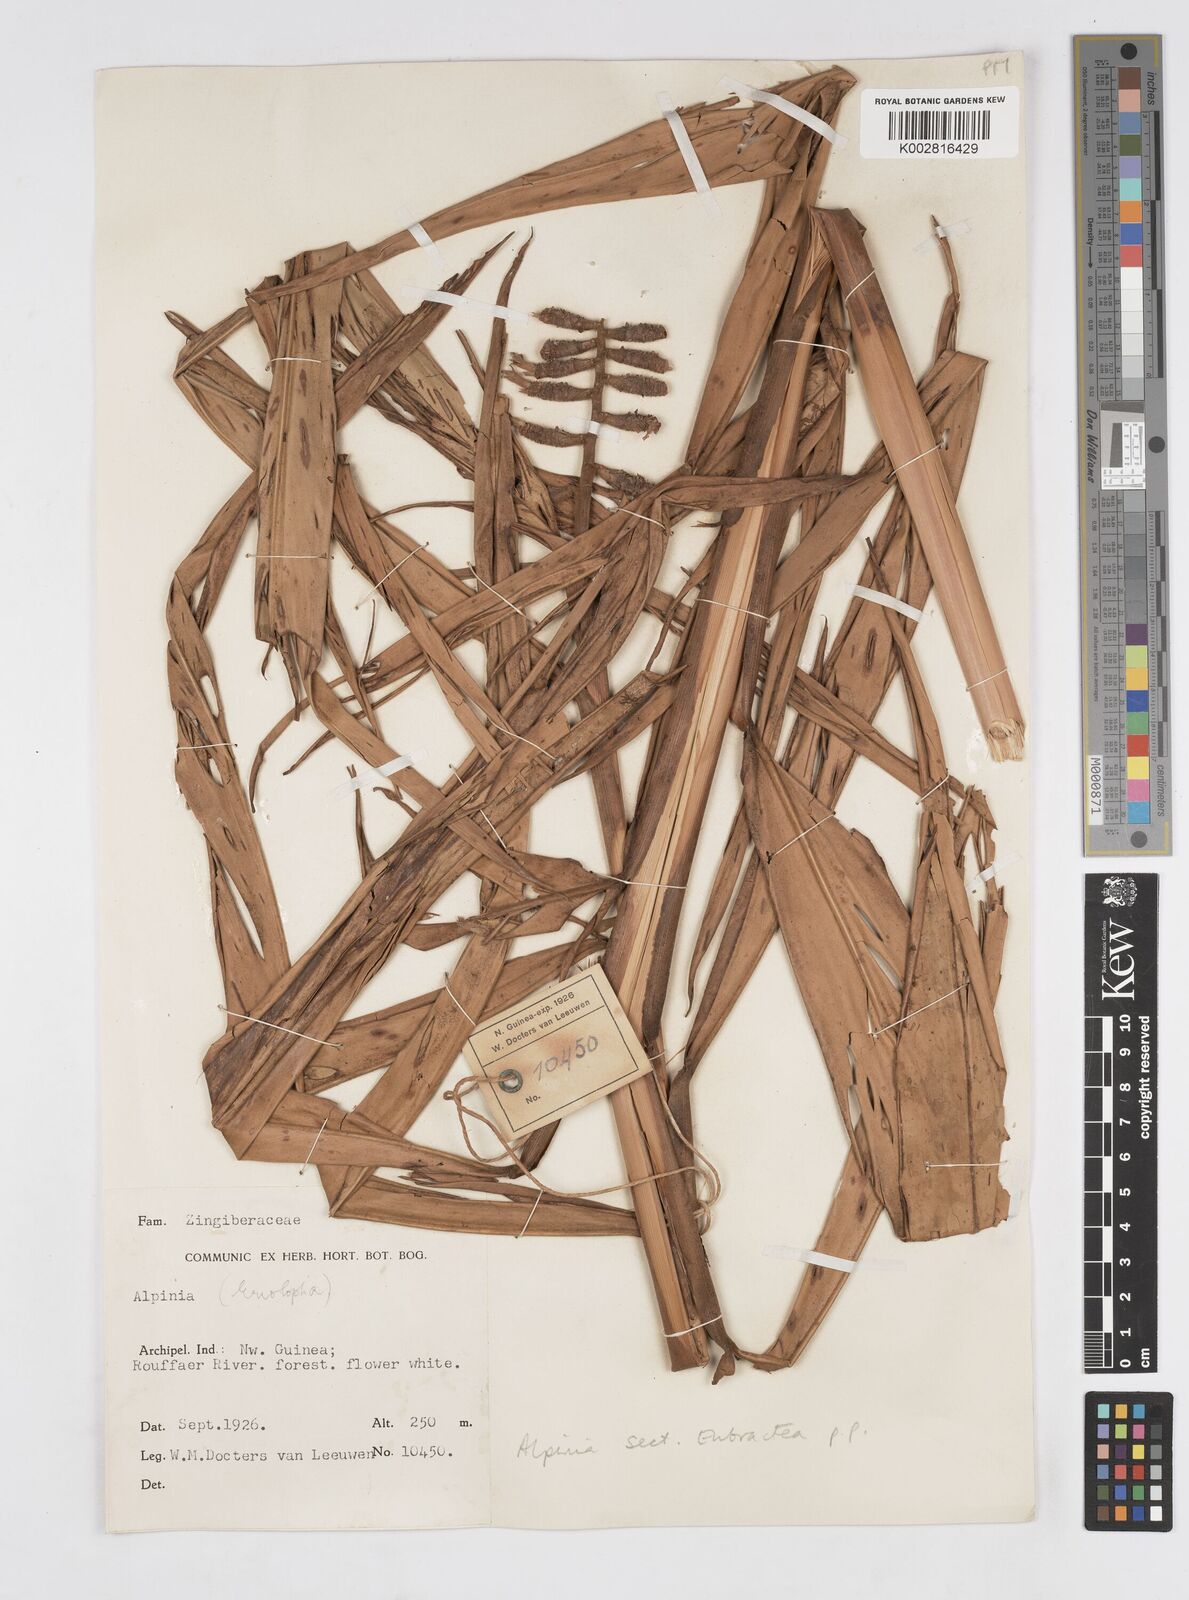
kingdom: Plantae
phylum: Tracheophyta
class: Liliopsida
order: Zingiberales
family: Zingiberaceae
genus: Alpinia
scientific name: Alpinia
